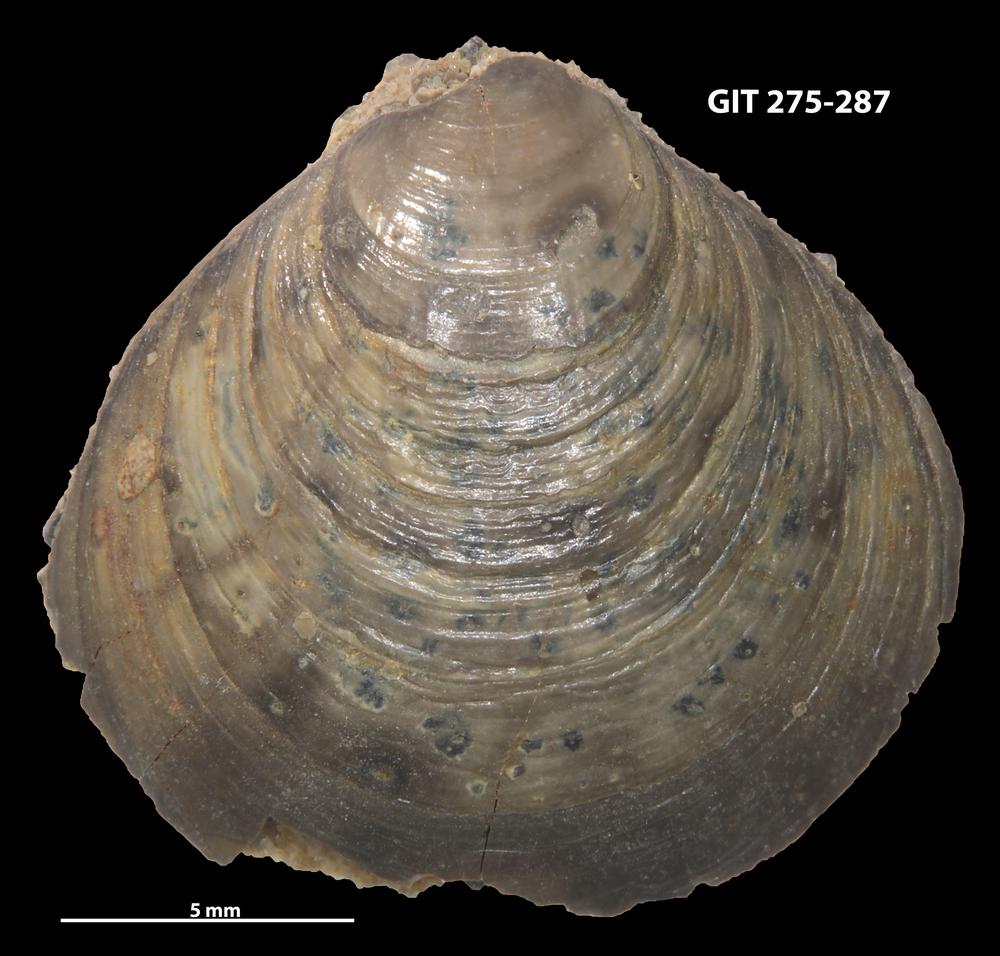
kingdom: Animalia
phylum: Brachiopoda
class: Lingulata
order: Lingulida
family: Obolidae
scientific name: Obolidae
